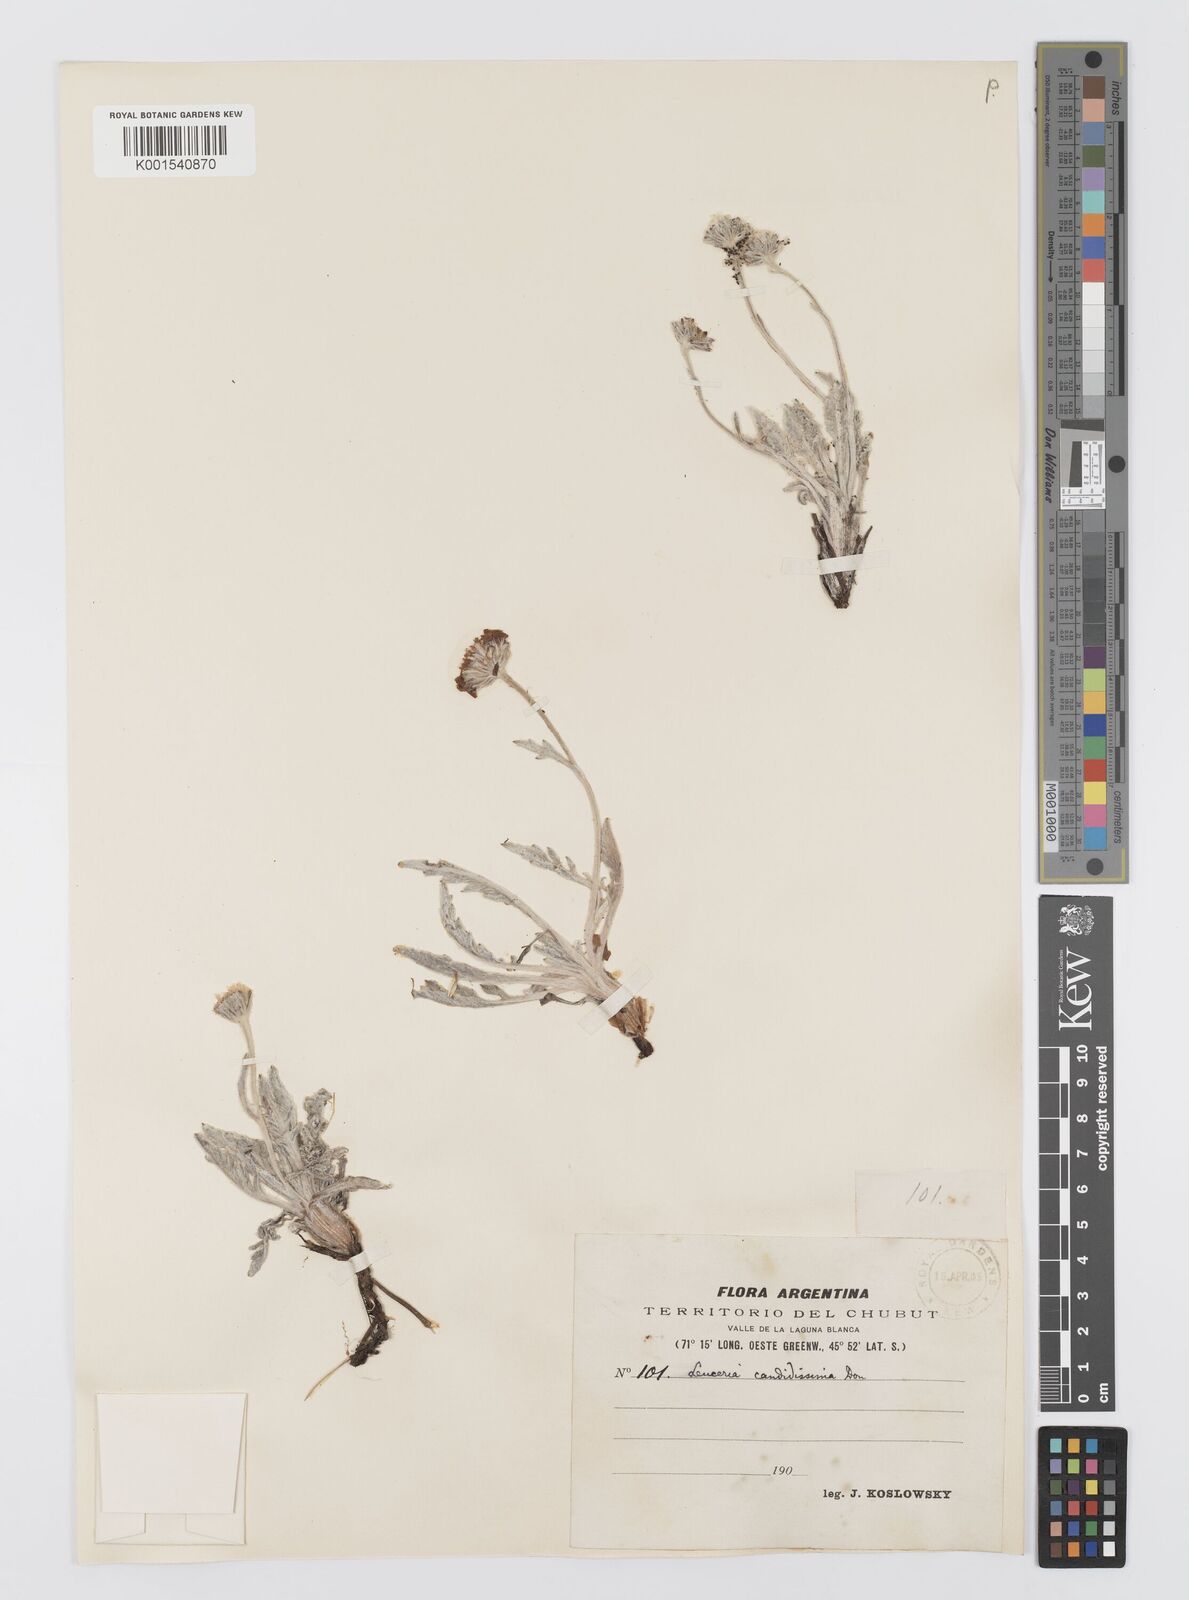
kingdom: Plantae
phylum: Tracheophyta
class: Magnoliopsida
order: Asterales
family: Asteraceae
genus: Leucheria
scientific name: Leucheria candidissima
